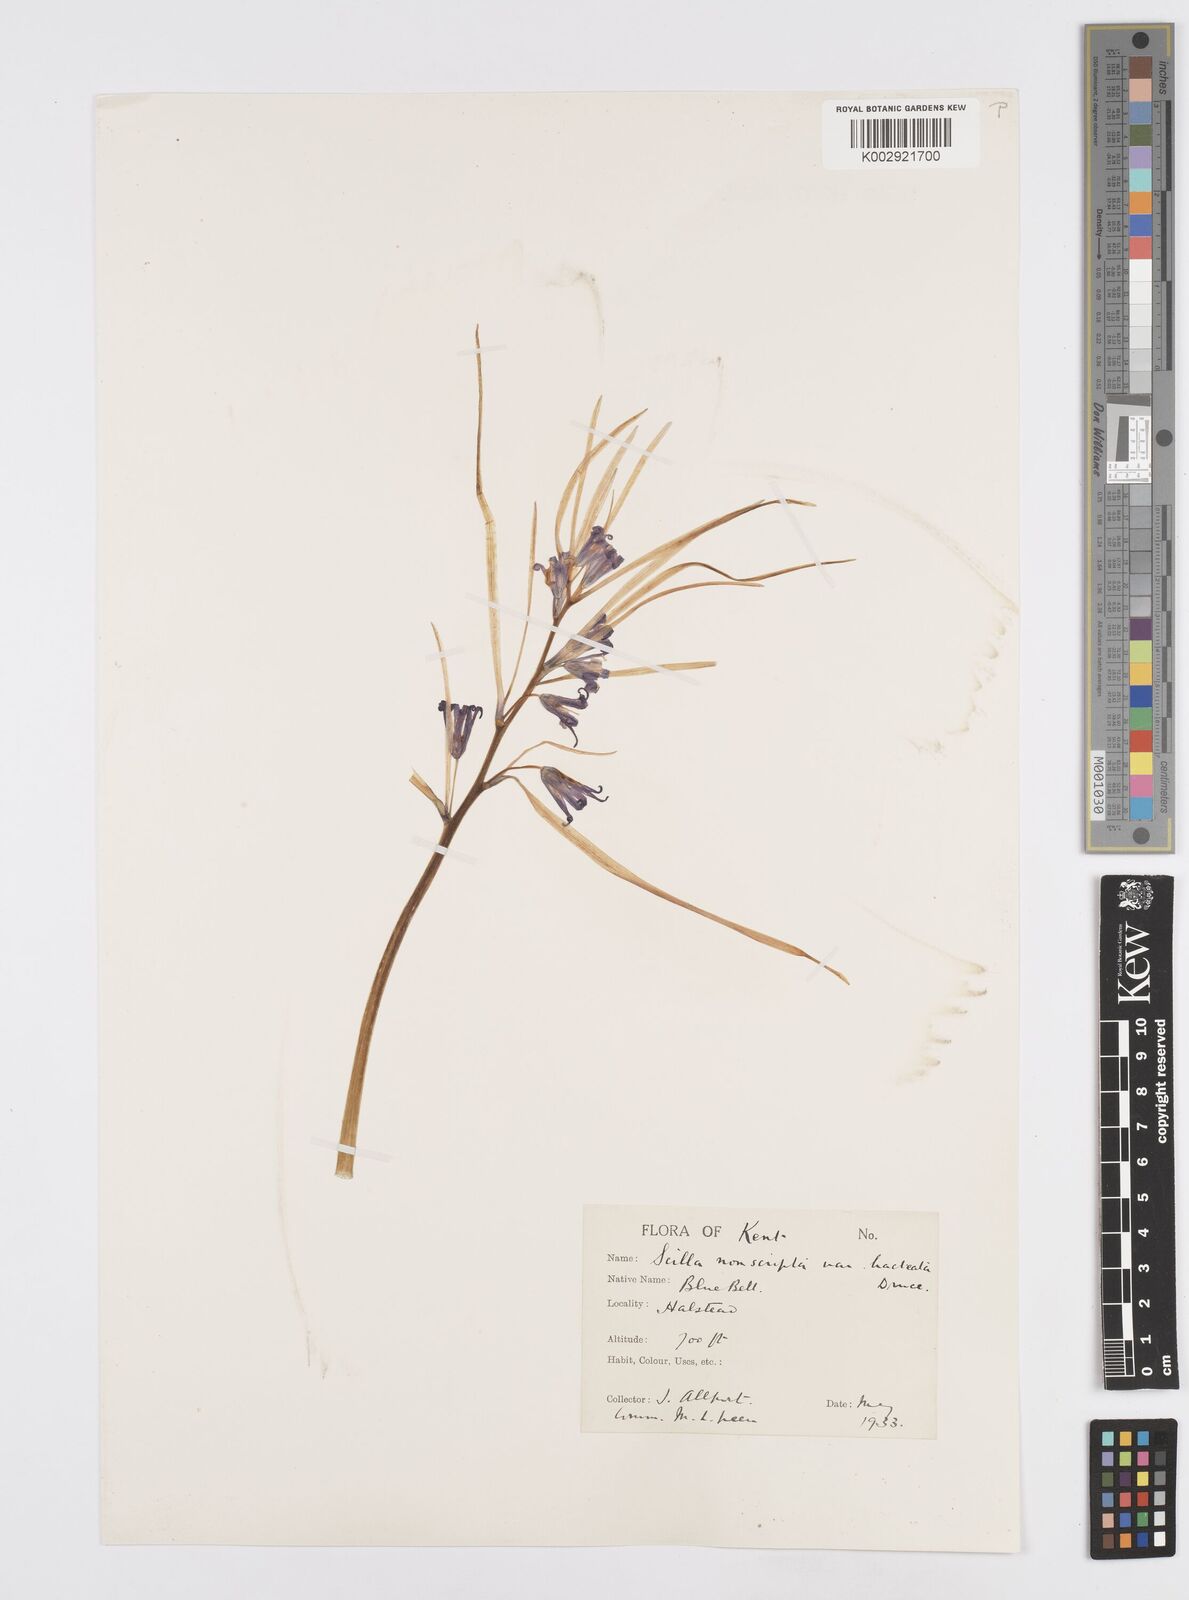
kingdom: Plantae
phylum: Tracheophyta
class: Liliopsida
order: Asparagales
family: Asparagaceae
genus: Hyacinthoides
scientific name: Hyacinthoides
